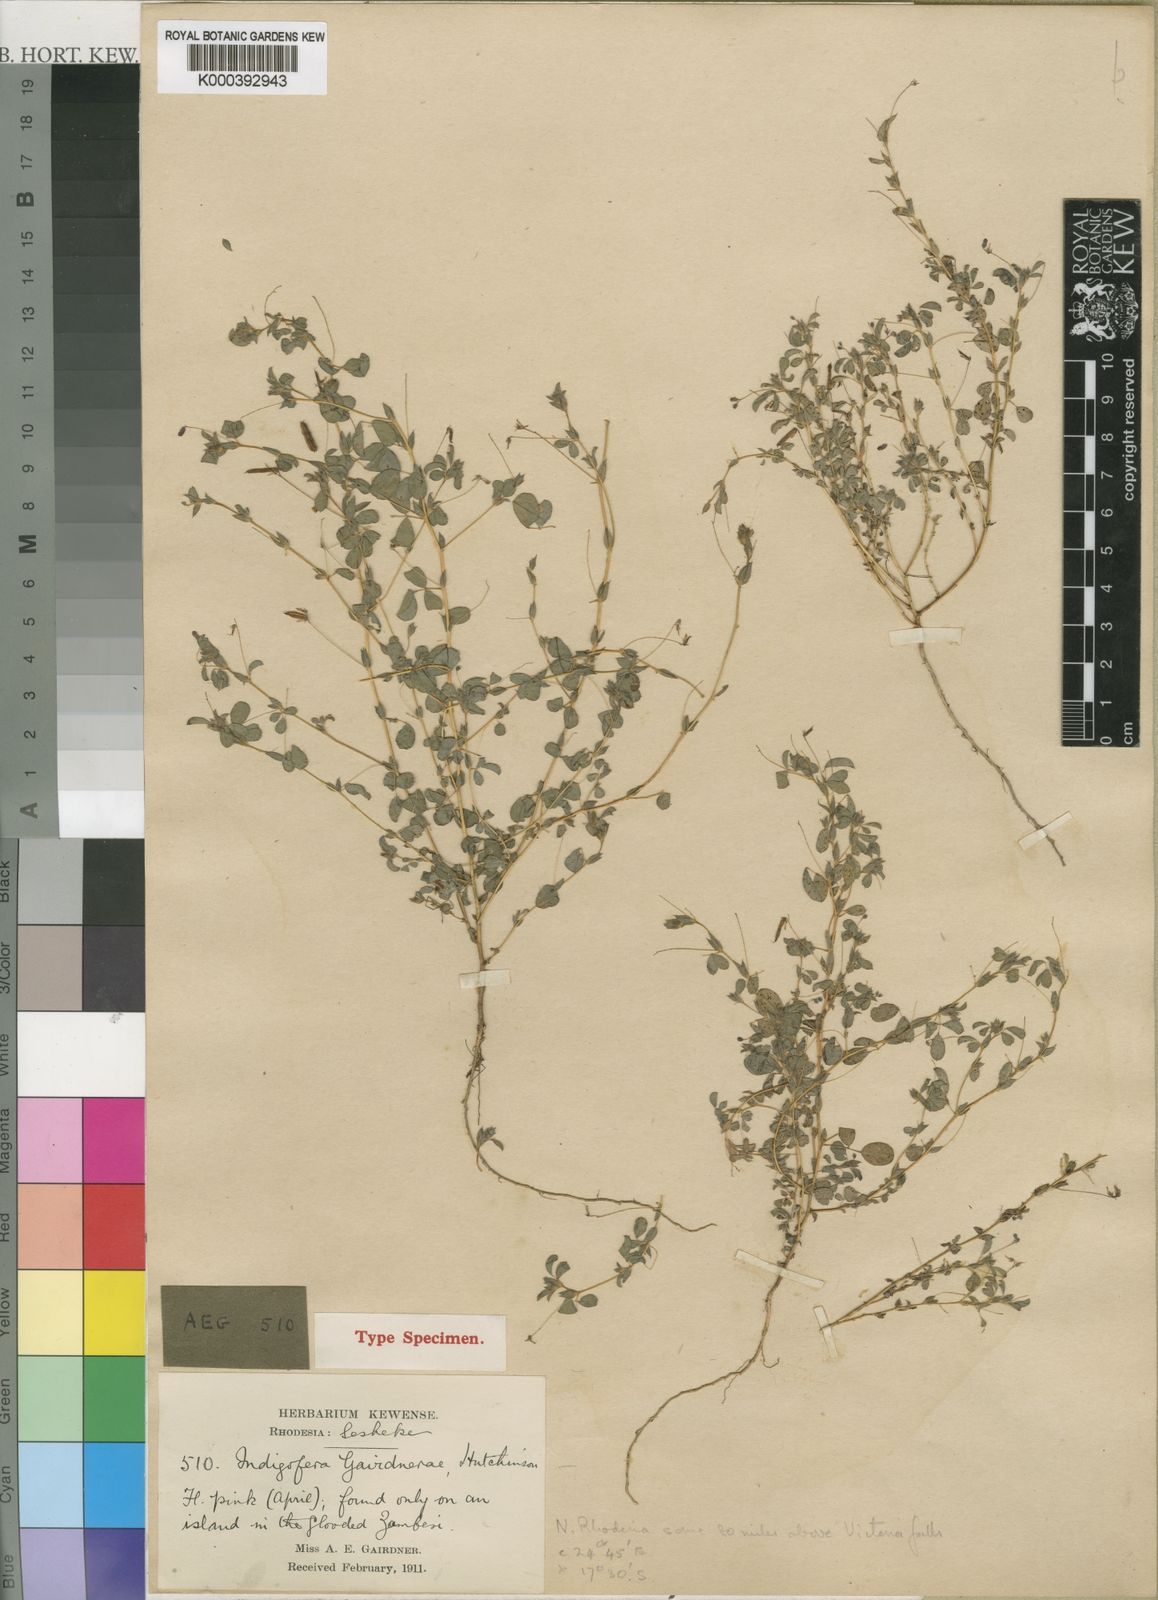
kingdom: Plantae
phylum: Tracheophyta
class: Magnoliopsida
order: Fabales
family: Fabaceae
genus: Indigofera
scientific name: Indigofera gairdnerae
